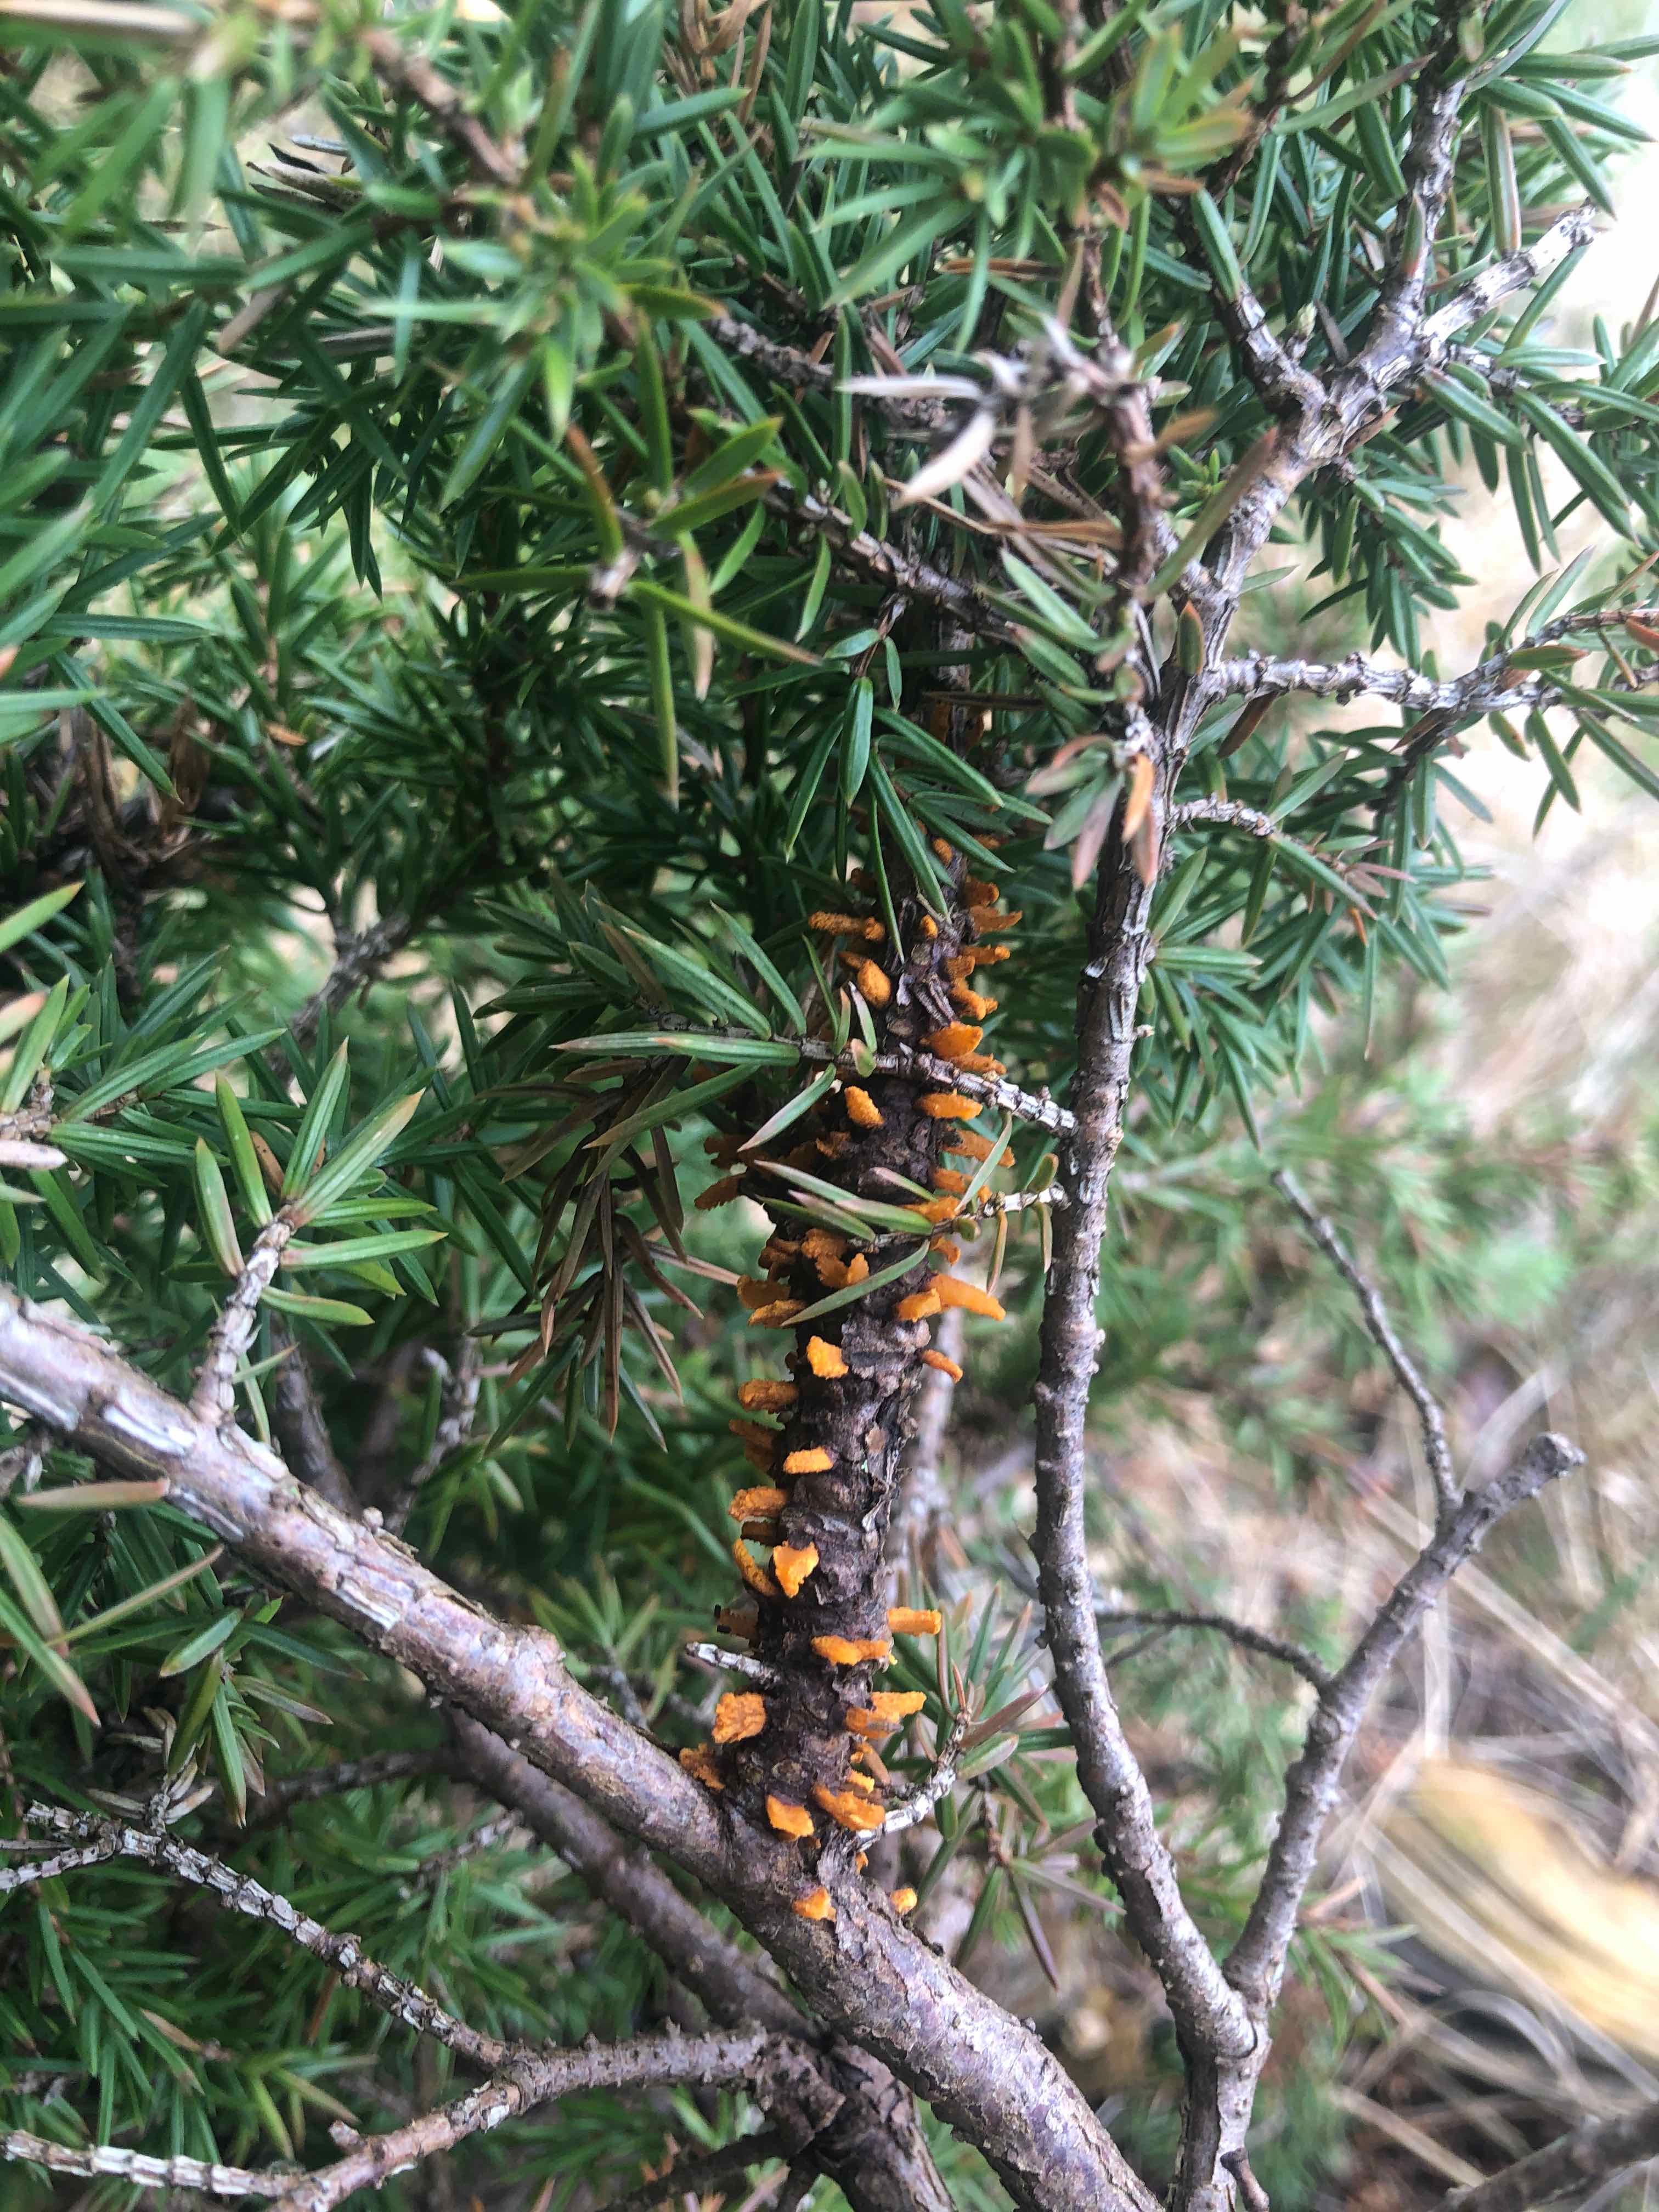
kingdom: Fungi
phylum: Basidiomycota
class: Pucciniomycetes
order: Pucciniales
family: Gymnosporangiaceae
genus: Gymnosporangium
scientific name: Gymnosporangium clavariiforme
